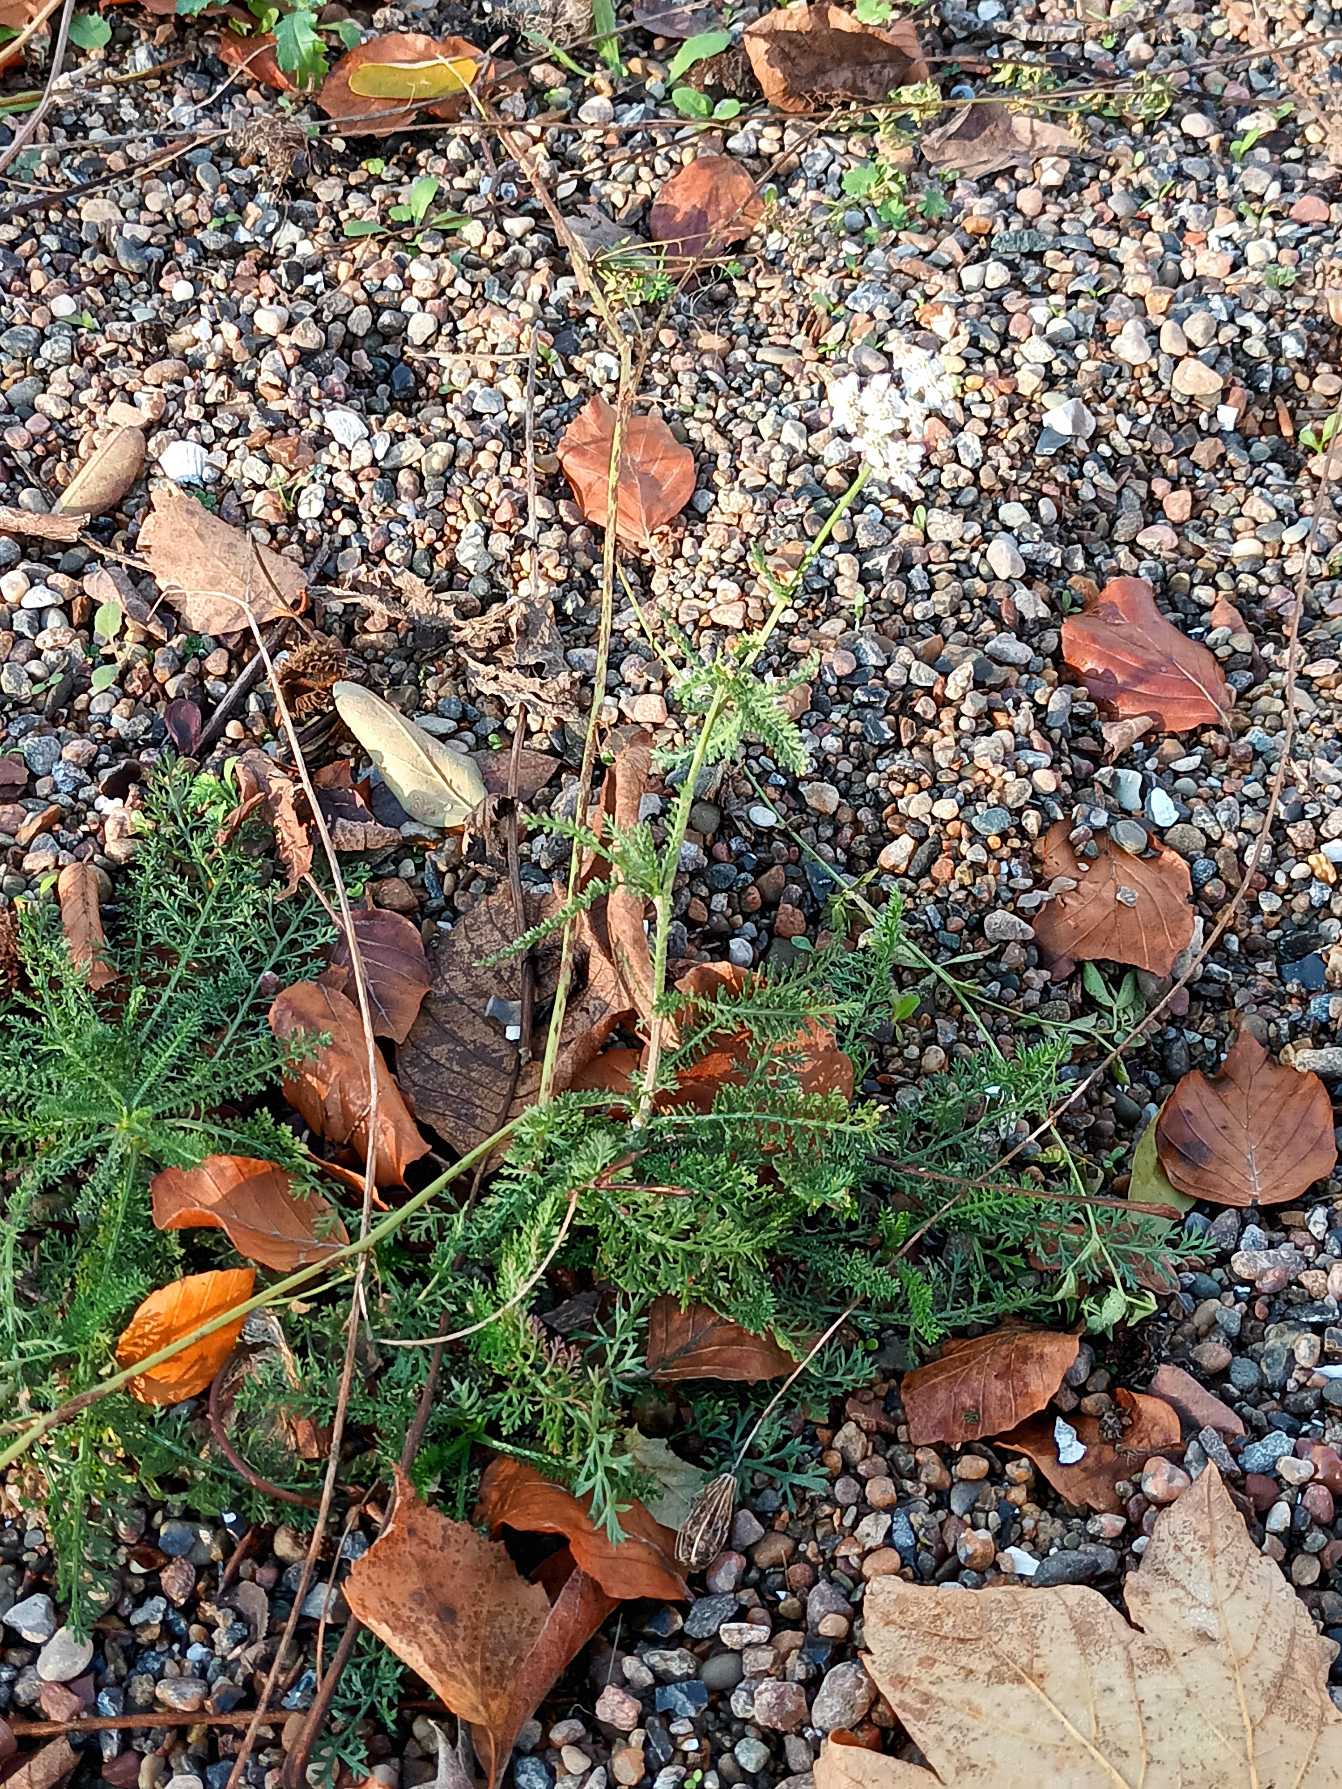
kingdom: Plantae
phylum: Tracheophyta
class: Magnoliopsida
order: Asterales
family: Asteraceae
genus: Achillea
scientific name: Achillea millefolium
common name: Almindelig røllike
